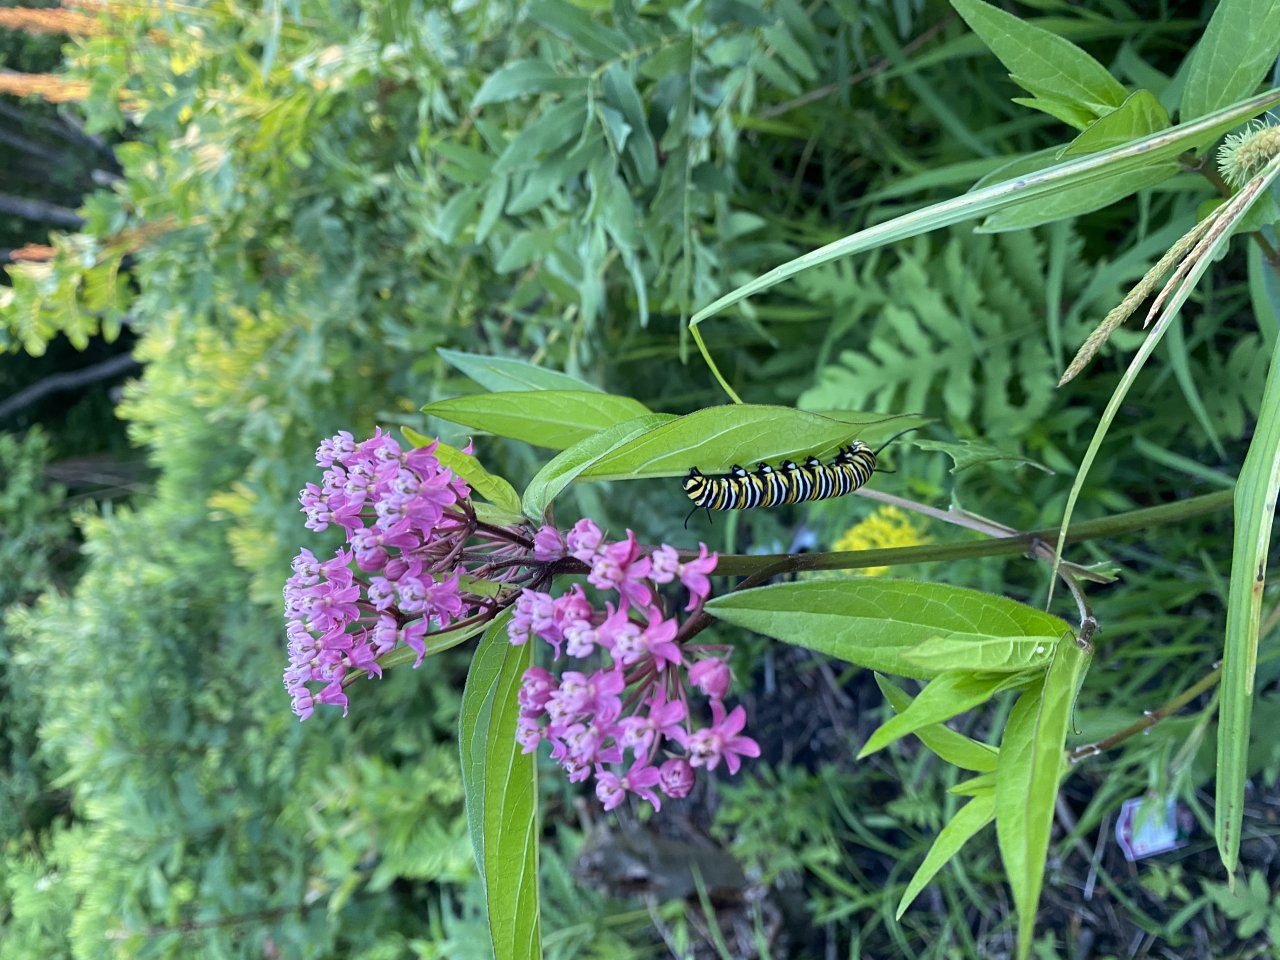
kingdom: Animalia
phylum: Arthropoda
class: Insecta
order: Lepidoptera
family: Nymphalidae
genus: Danaus
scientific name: Danaus plexippus
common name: Monarch
